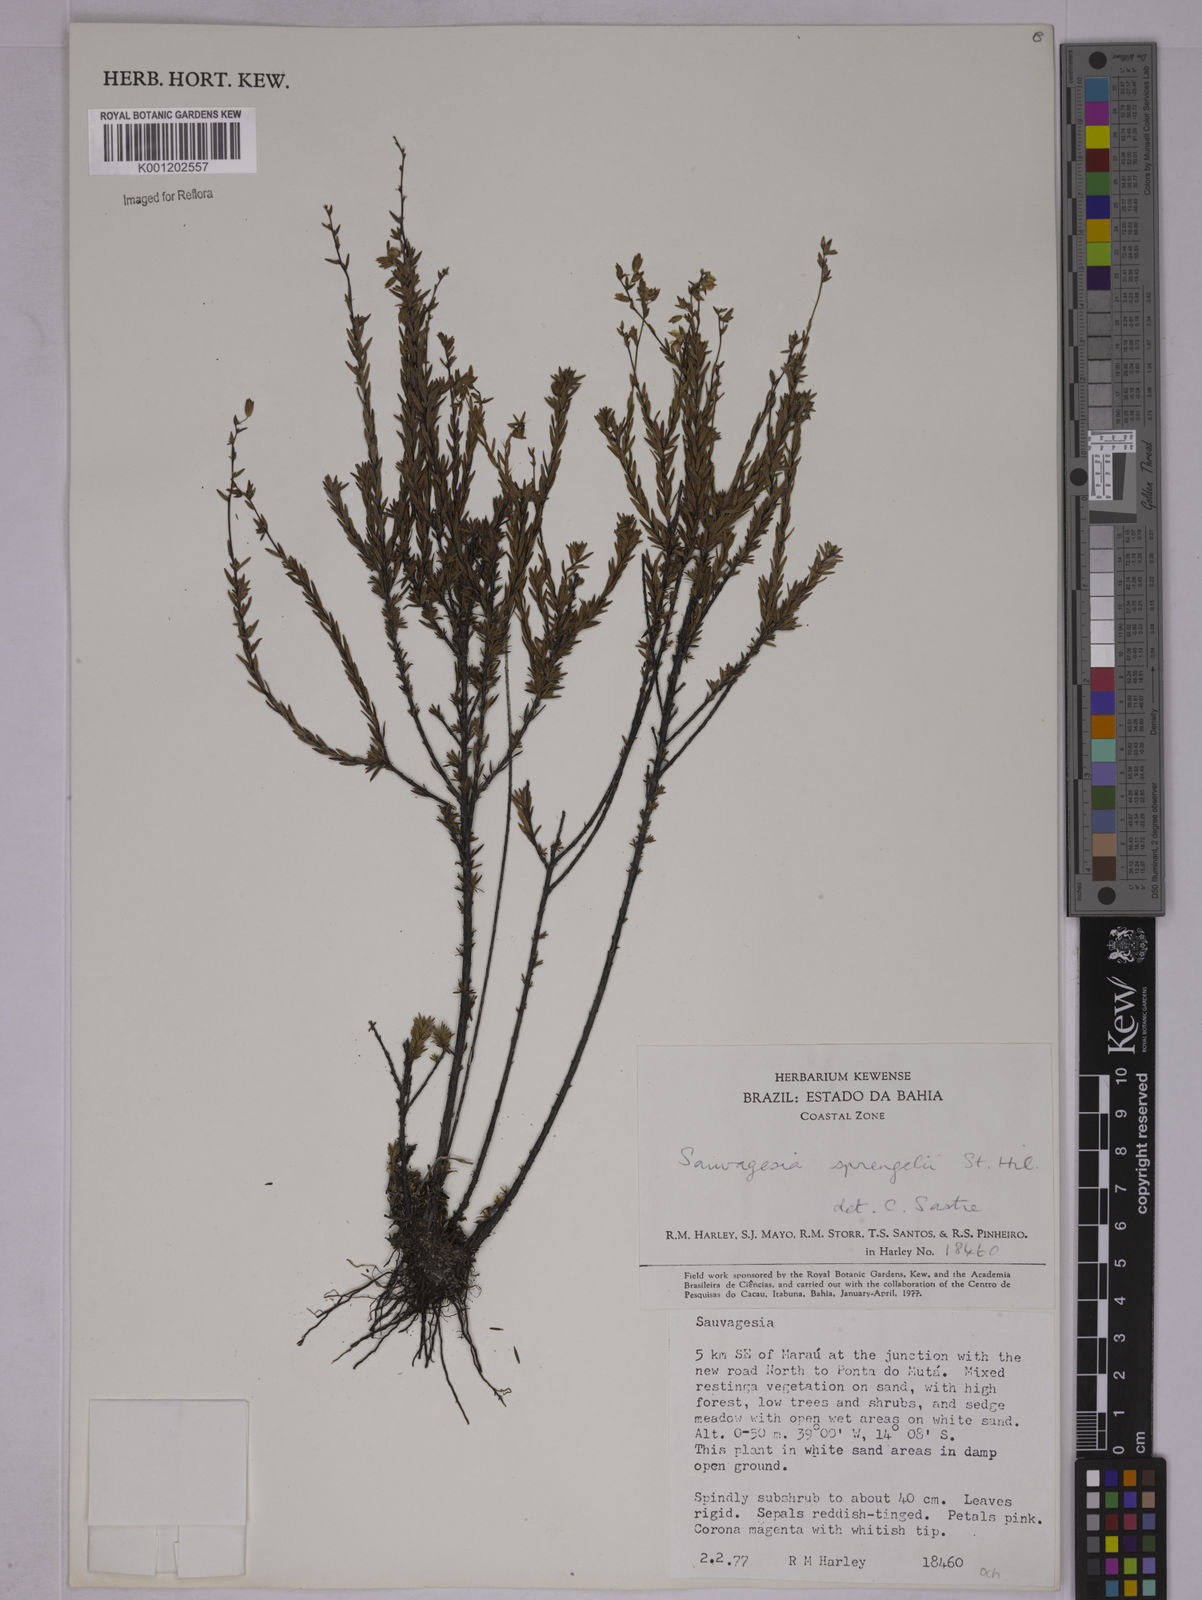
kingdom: Plantae
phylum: Tracheophyta
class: Magnoliopsida
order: Malpighiales
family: Ochnaceae
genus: Sauvagesia
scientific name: Sauvagesia sprengelii
